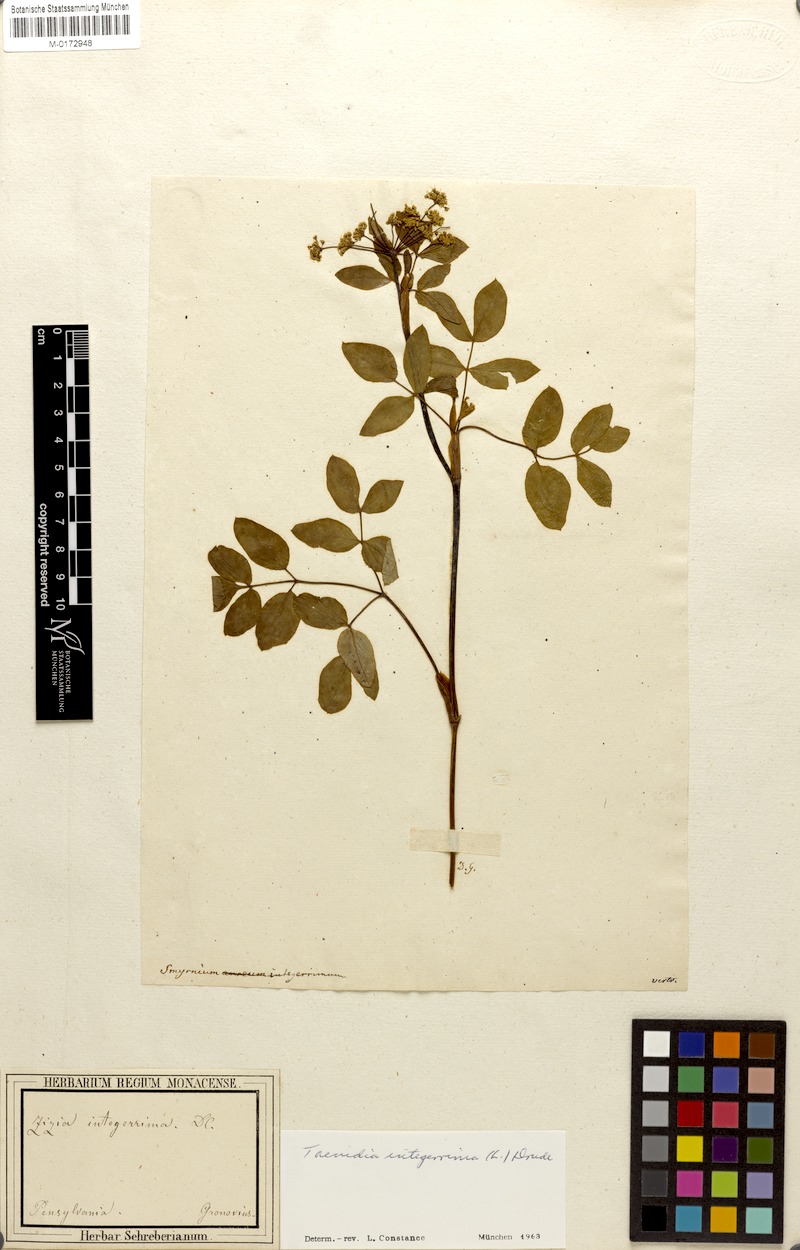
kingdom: Plantae
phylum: Tracheophyta
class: Magnoliopsida
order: Apiales
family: Apiaceae
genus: Taenidia
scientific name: Taenidia integerrima
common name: Golden alexander
